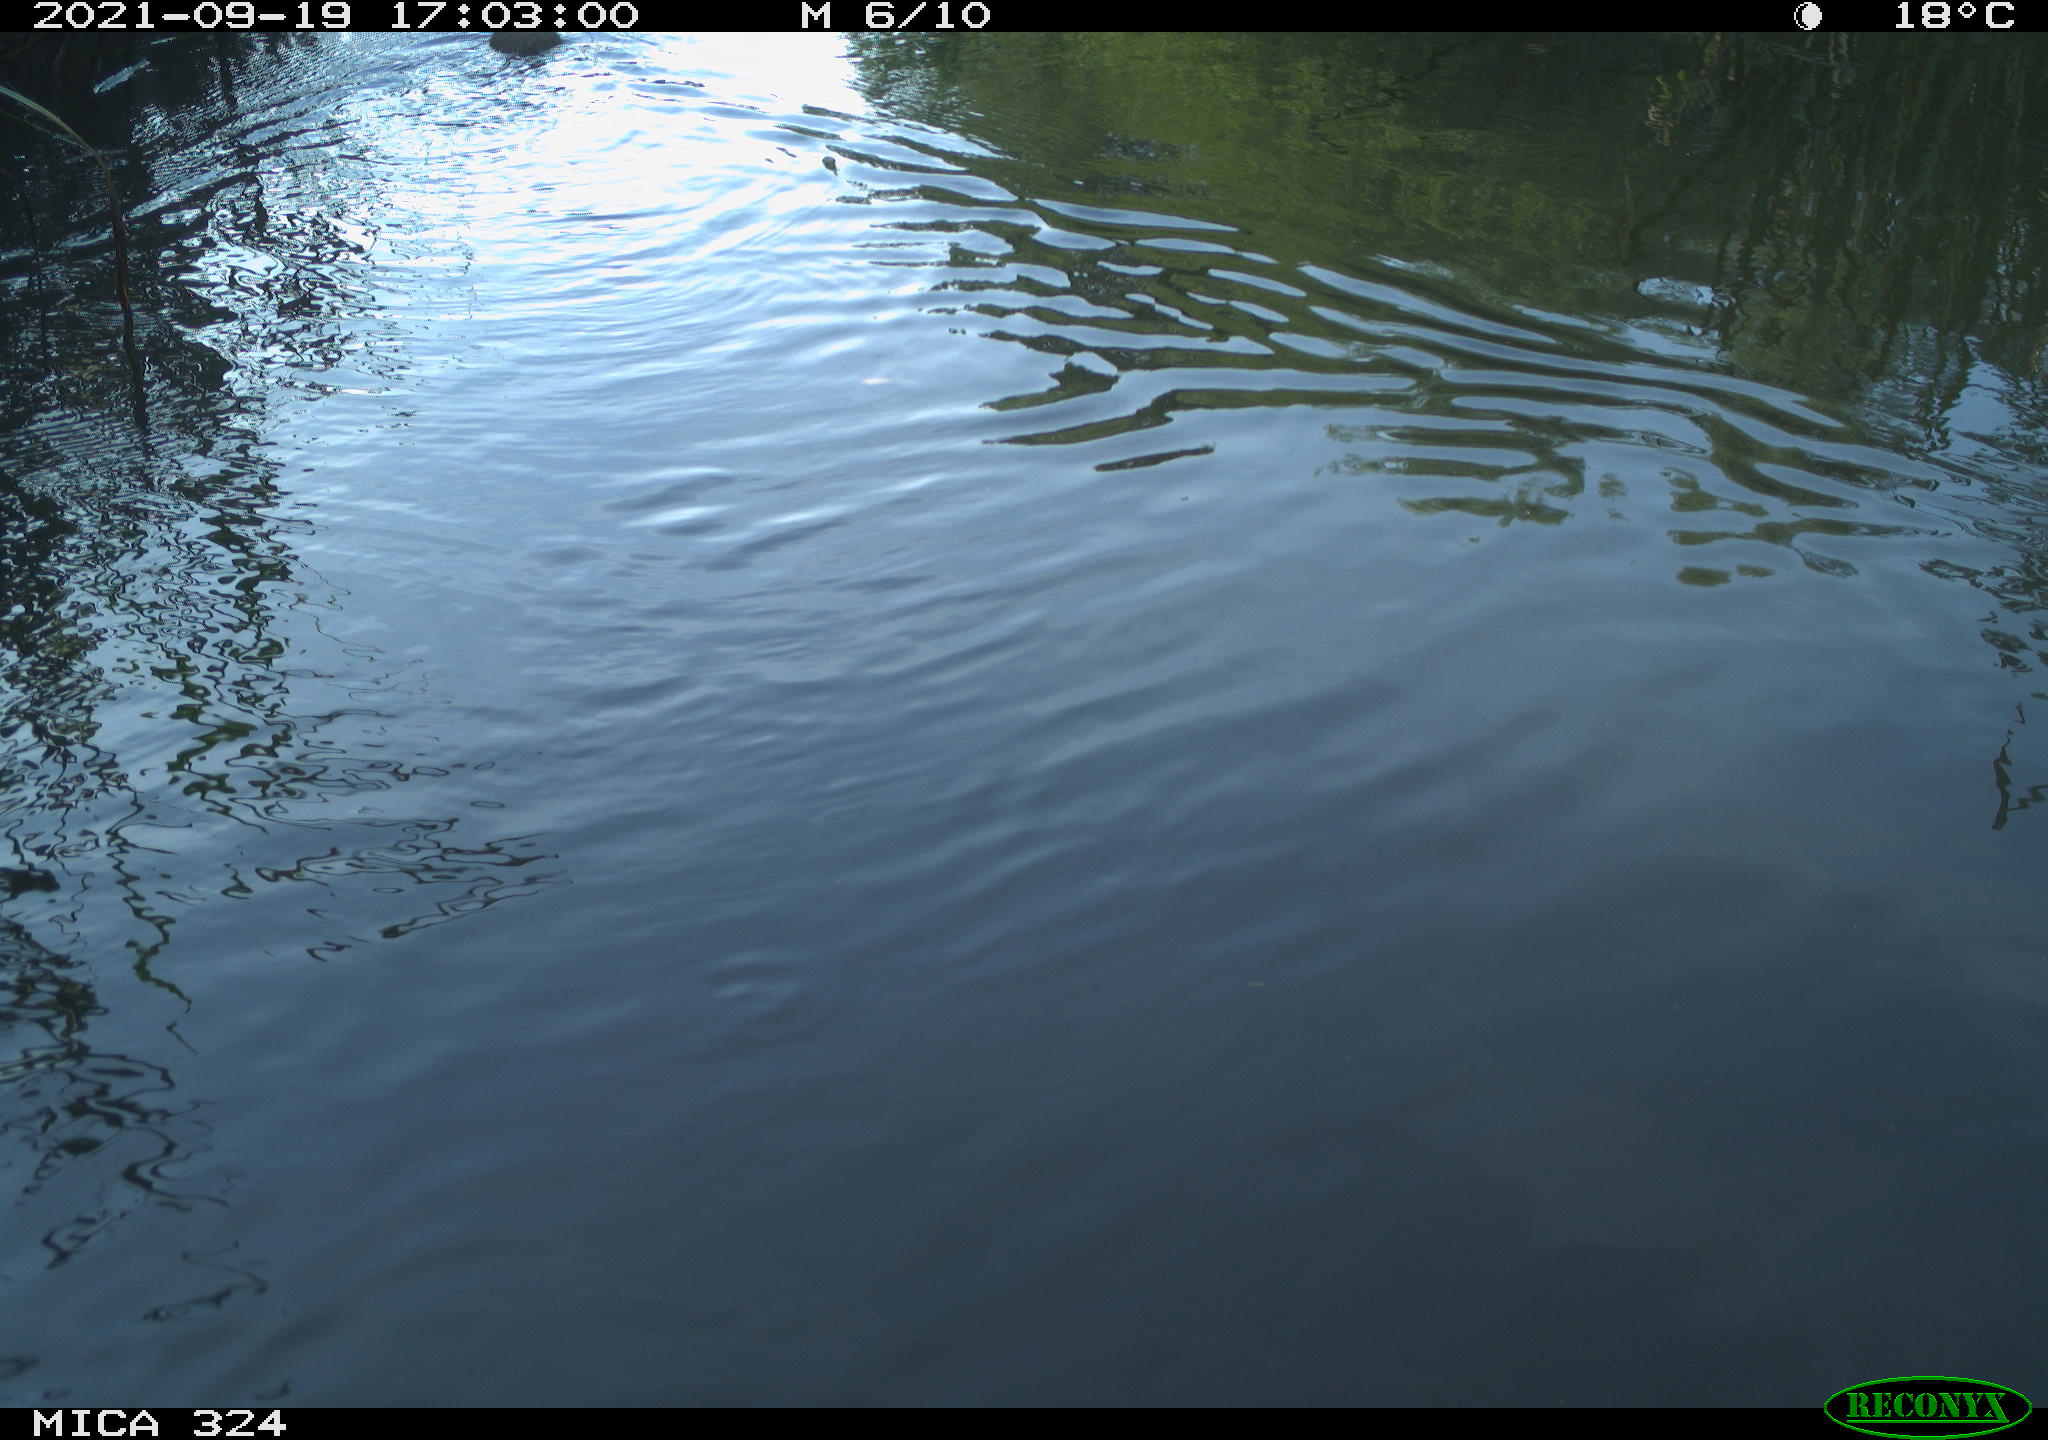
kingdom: Animalia
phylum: Chordata
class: Mammalia
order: Rodentia
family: Cricetidae
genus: Ondatra
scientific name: Ondatra zibethicus
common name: Muskrat
